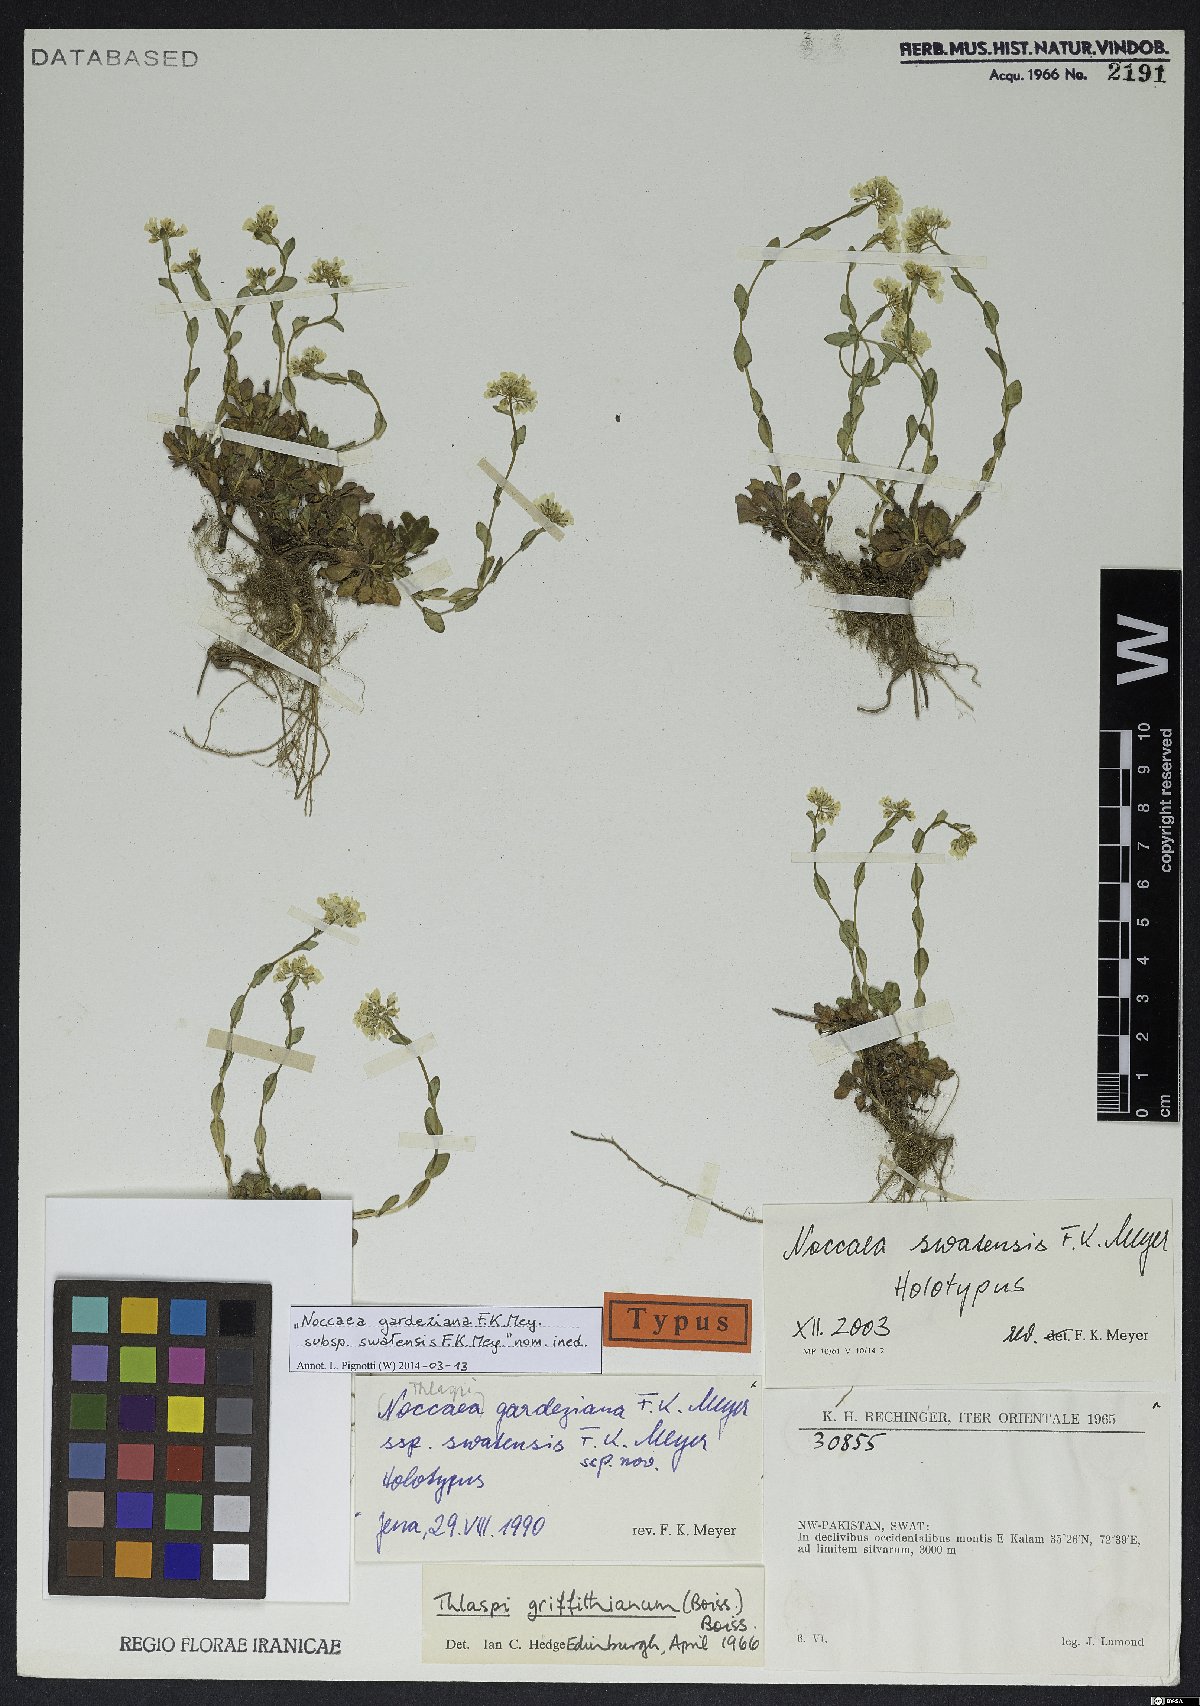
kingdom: Plantae
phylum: Tracheophyta
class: Magnoliopsida
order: Brassicales
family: Brassicaceae
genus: Noccaea
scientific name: Noccaea swatensis
